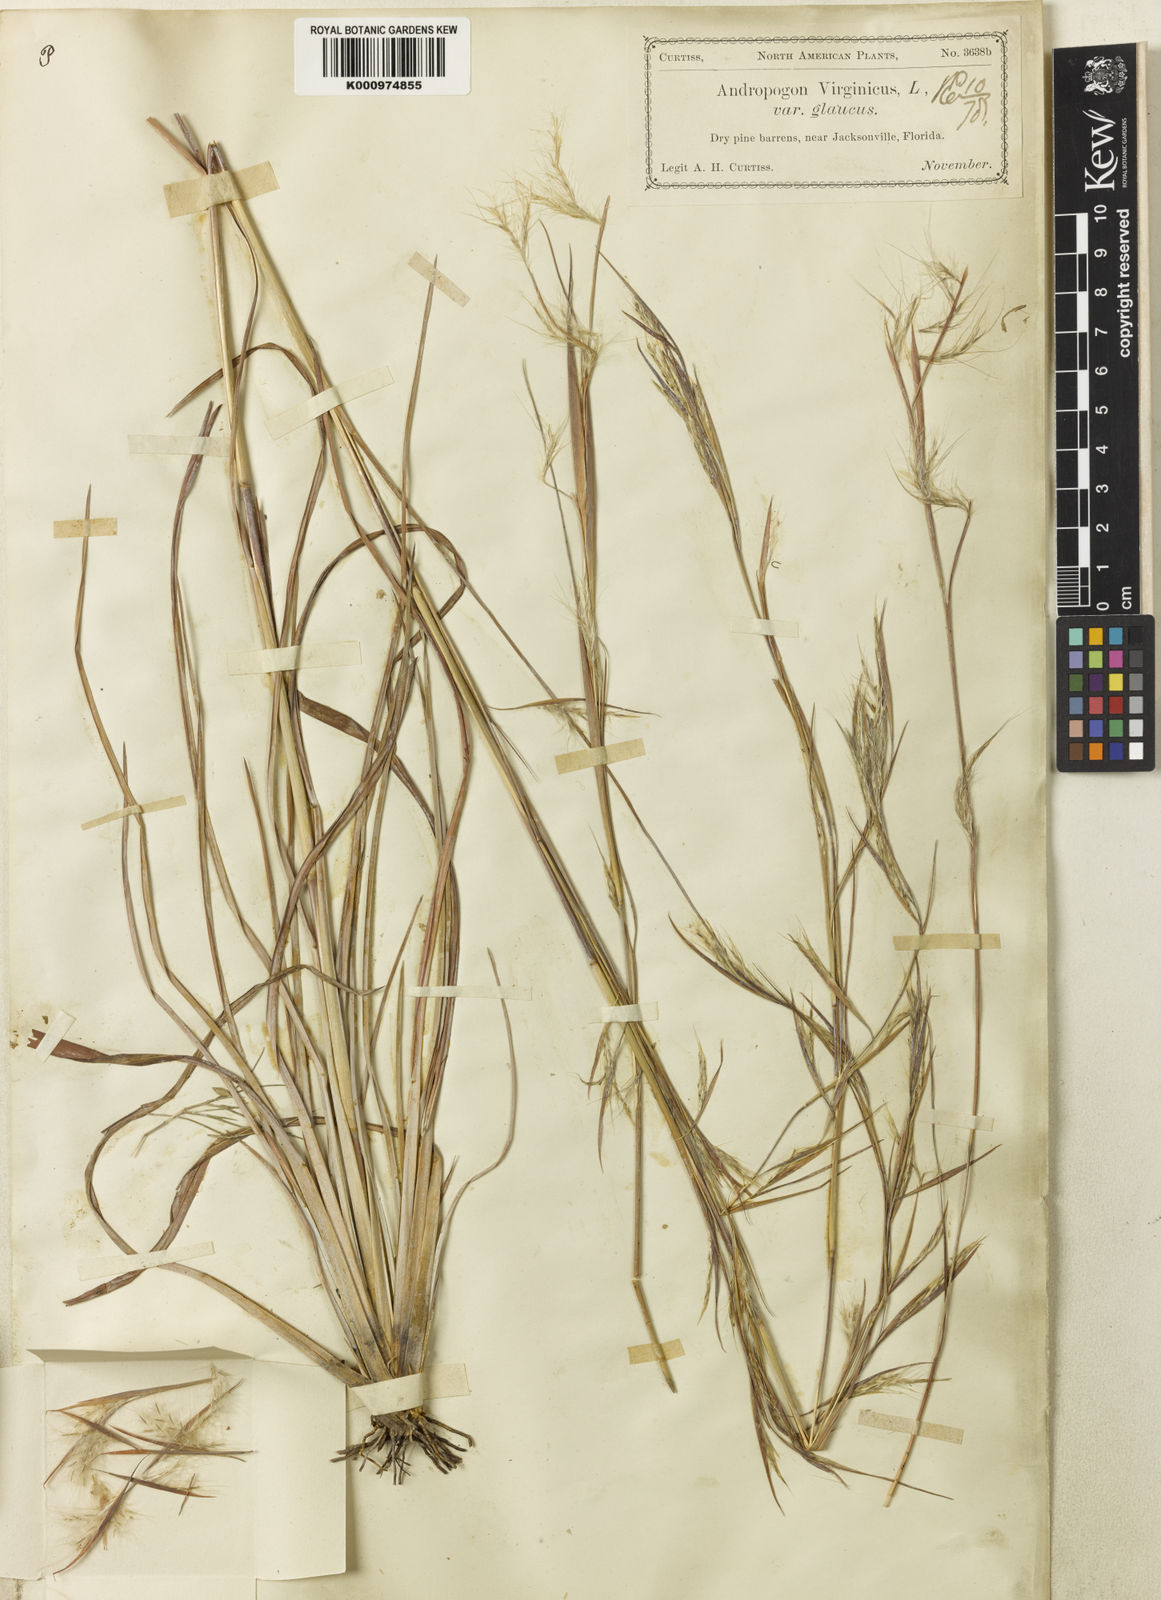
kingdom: Plantae
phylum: Tracheophyta
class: Liliopsida
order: Poales
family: Poaceae
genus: Andropogon
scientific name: Andropogon capillipes
